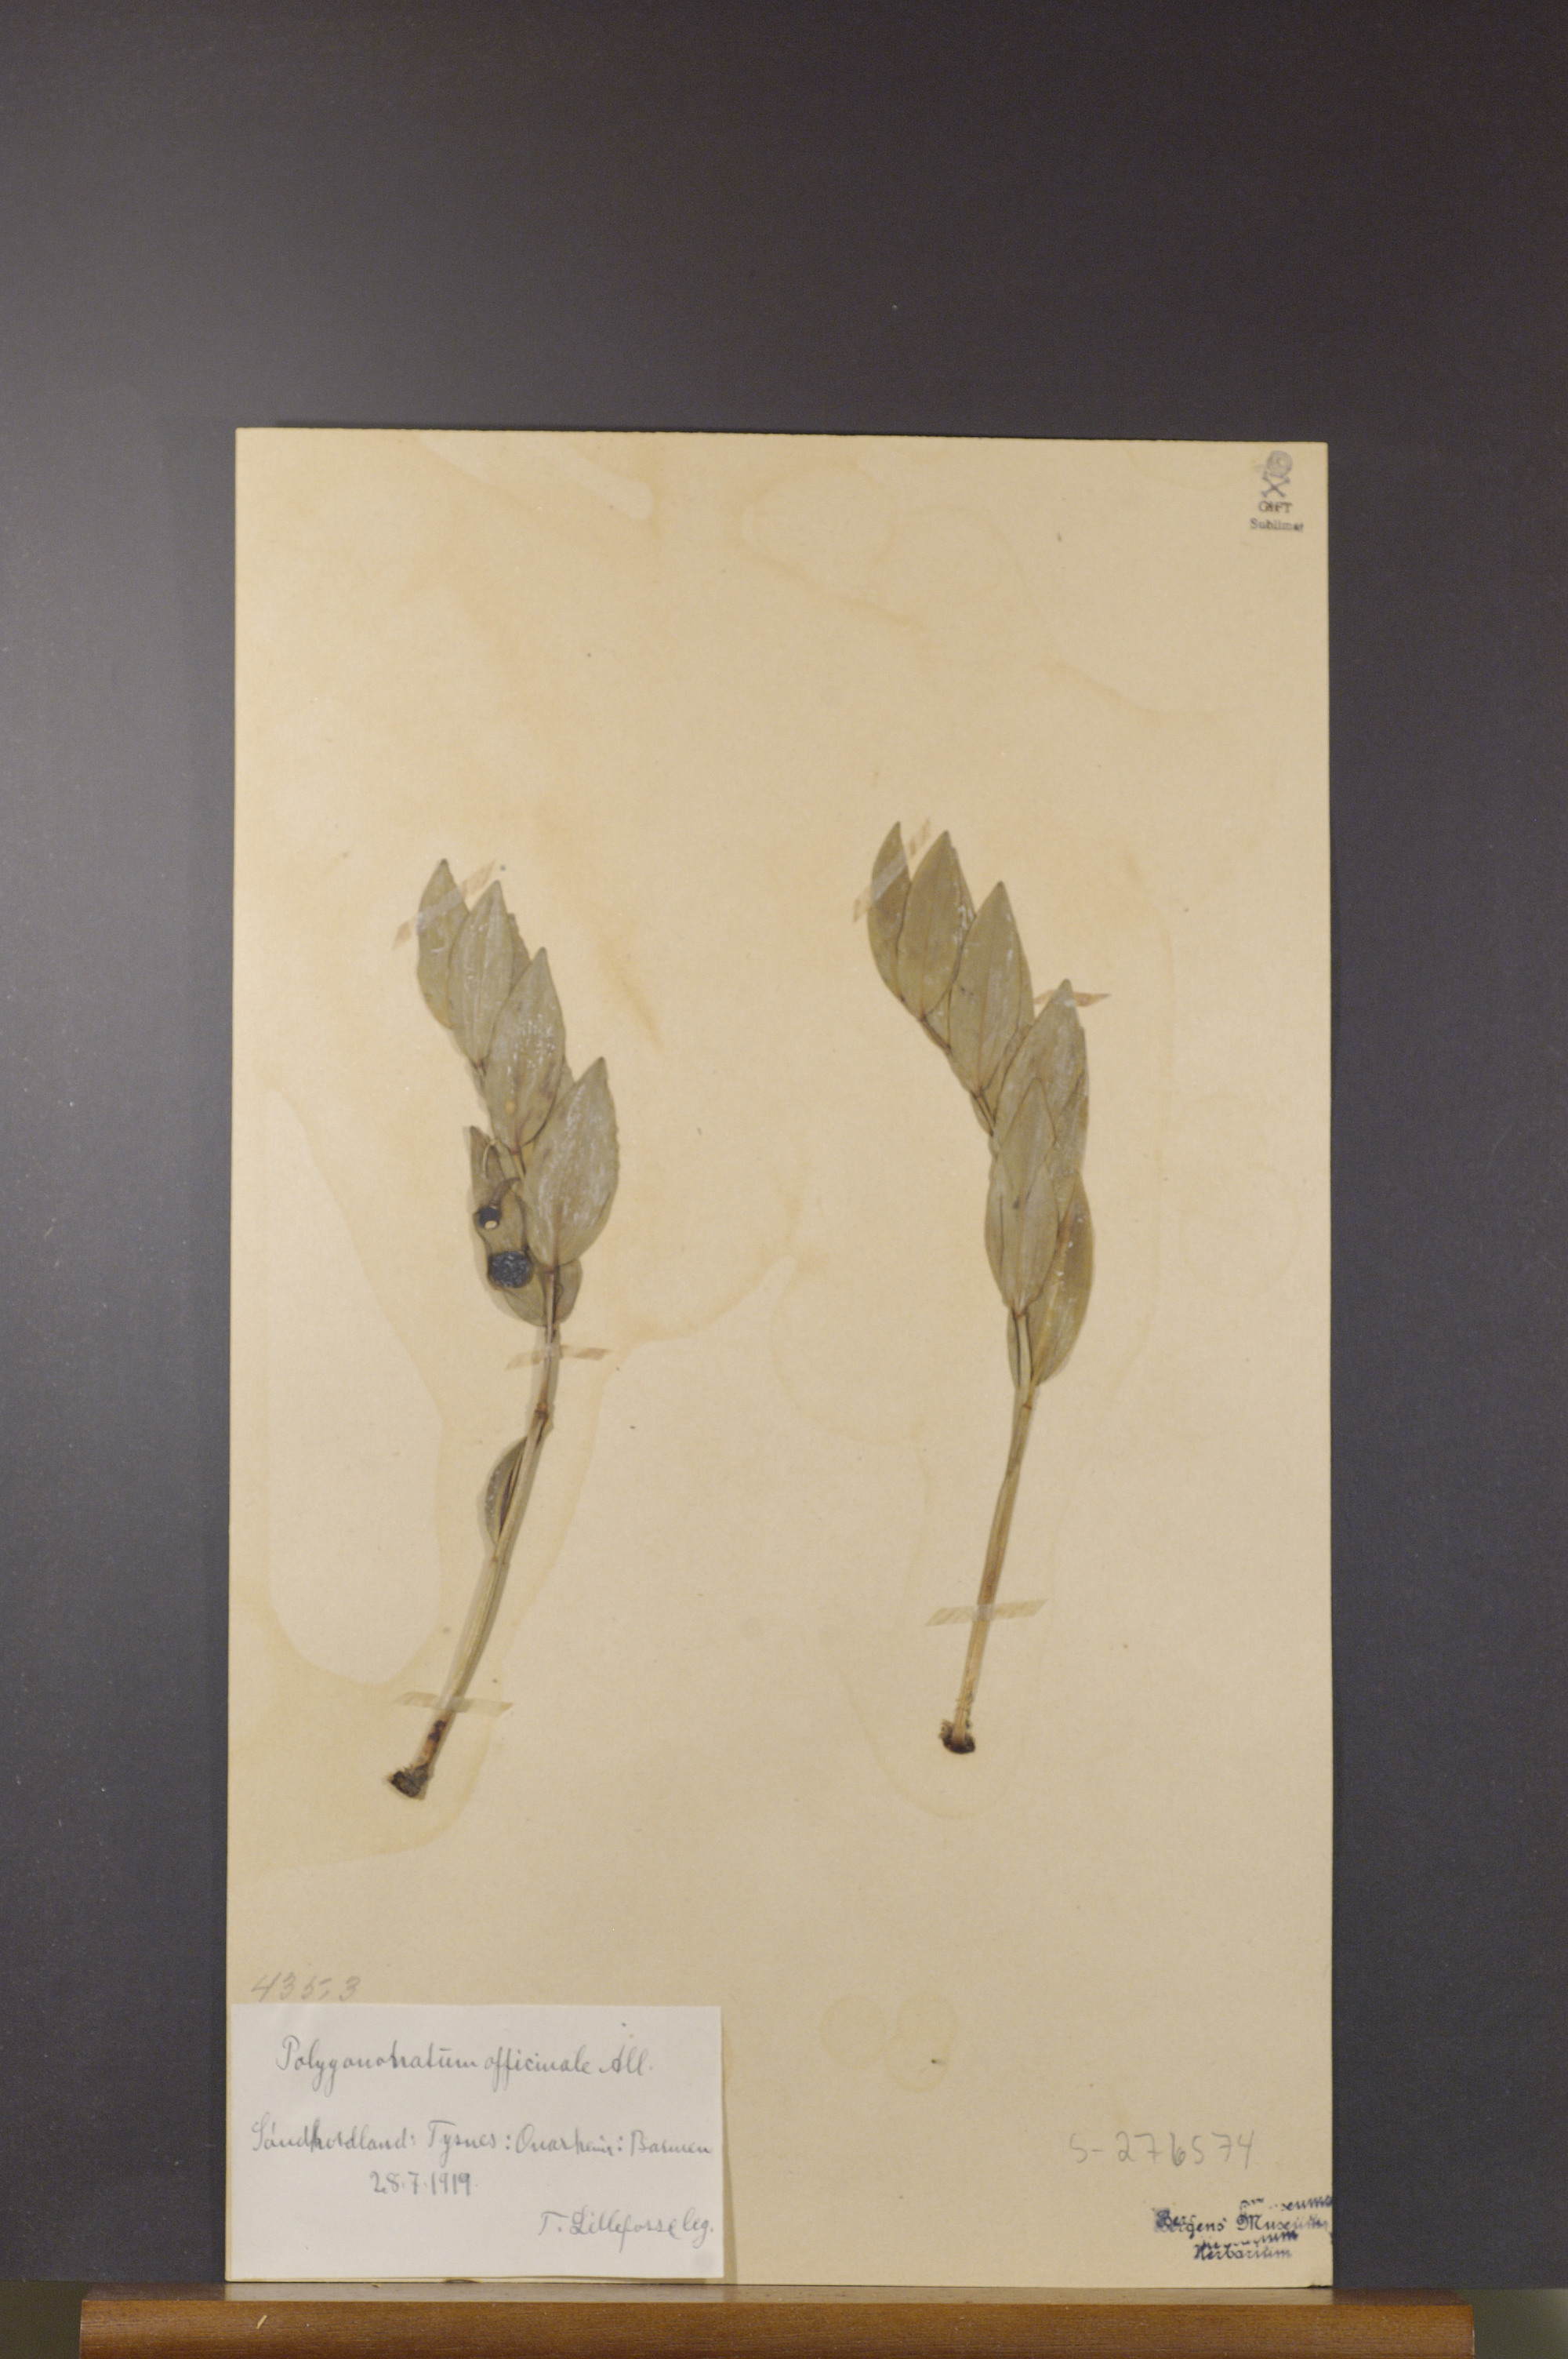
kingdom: Plantae
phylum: Tracheophyta
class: Liliopsida
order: Asparagales
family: Asparagaceae
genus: Polygonatum
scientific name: Polygonatum odoratum
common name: Angular solomon's-seal
